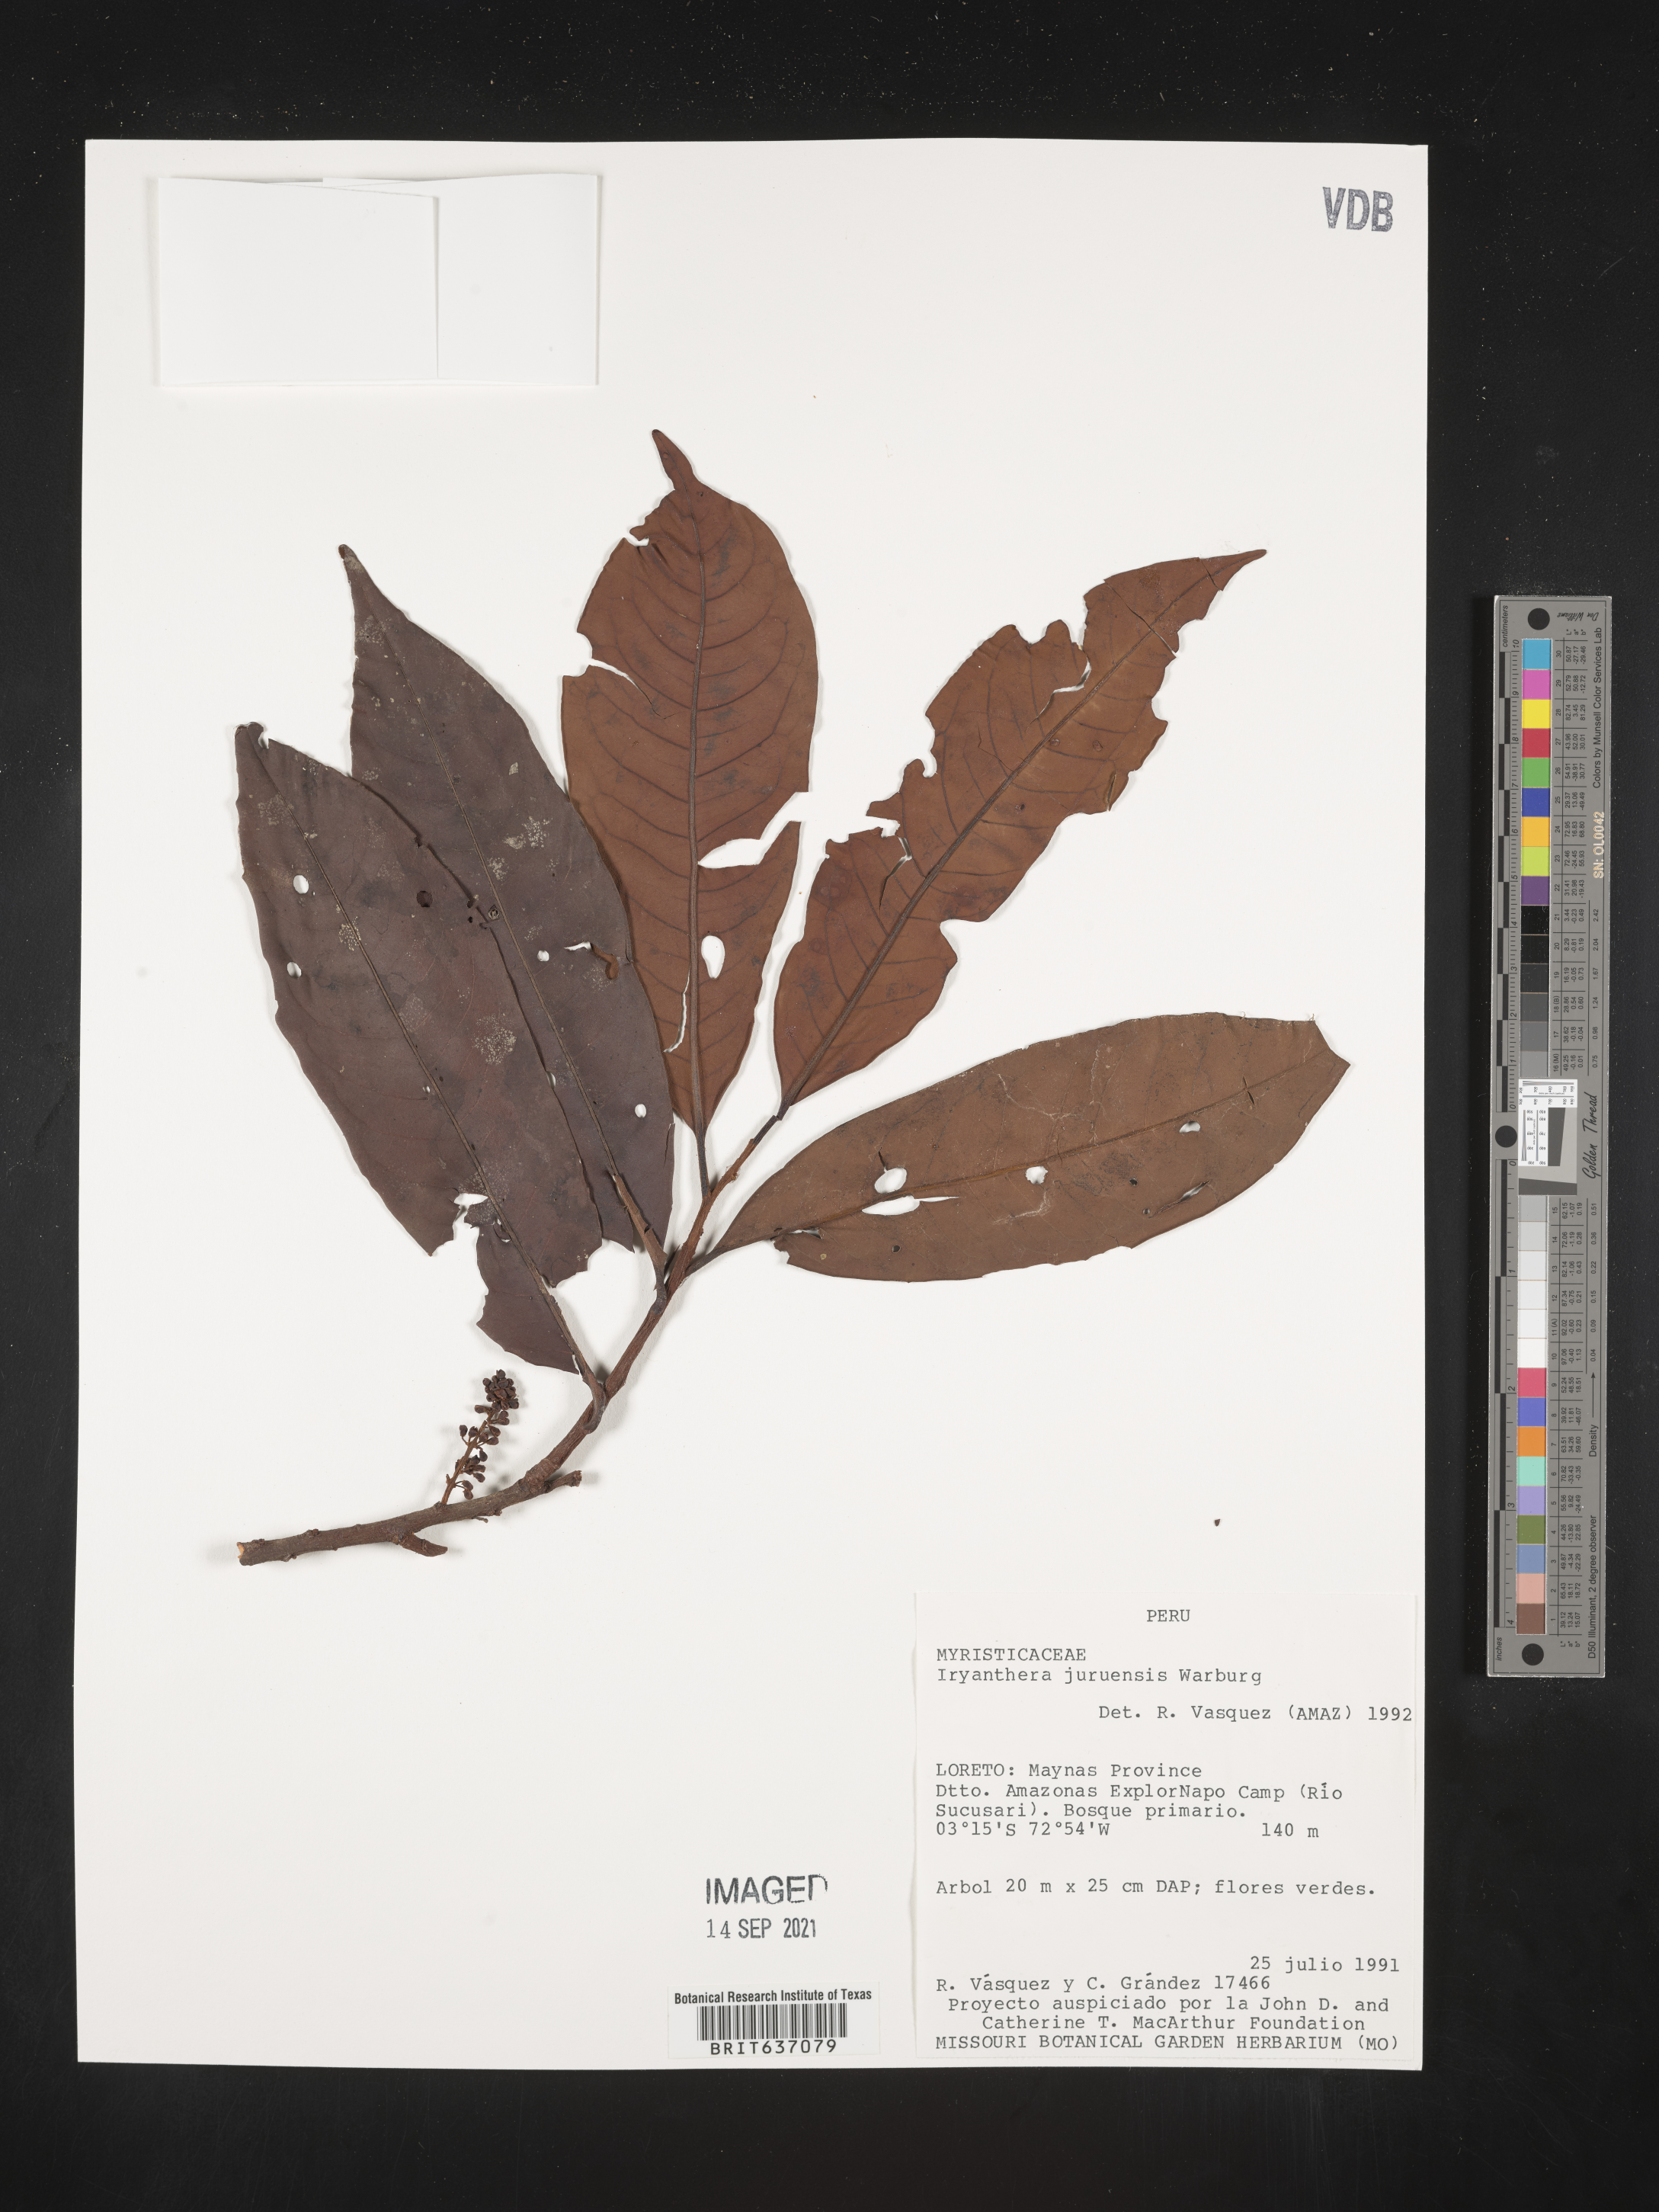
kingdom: Plantae
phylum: Tracheophyta
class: Magnoliopsida
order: Magnoliales
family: Myristicaceae
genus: Iryanthera
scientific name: Iryanthera
